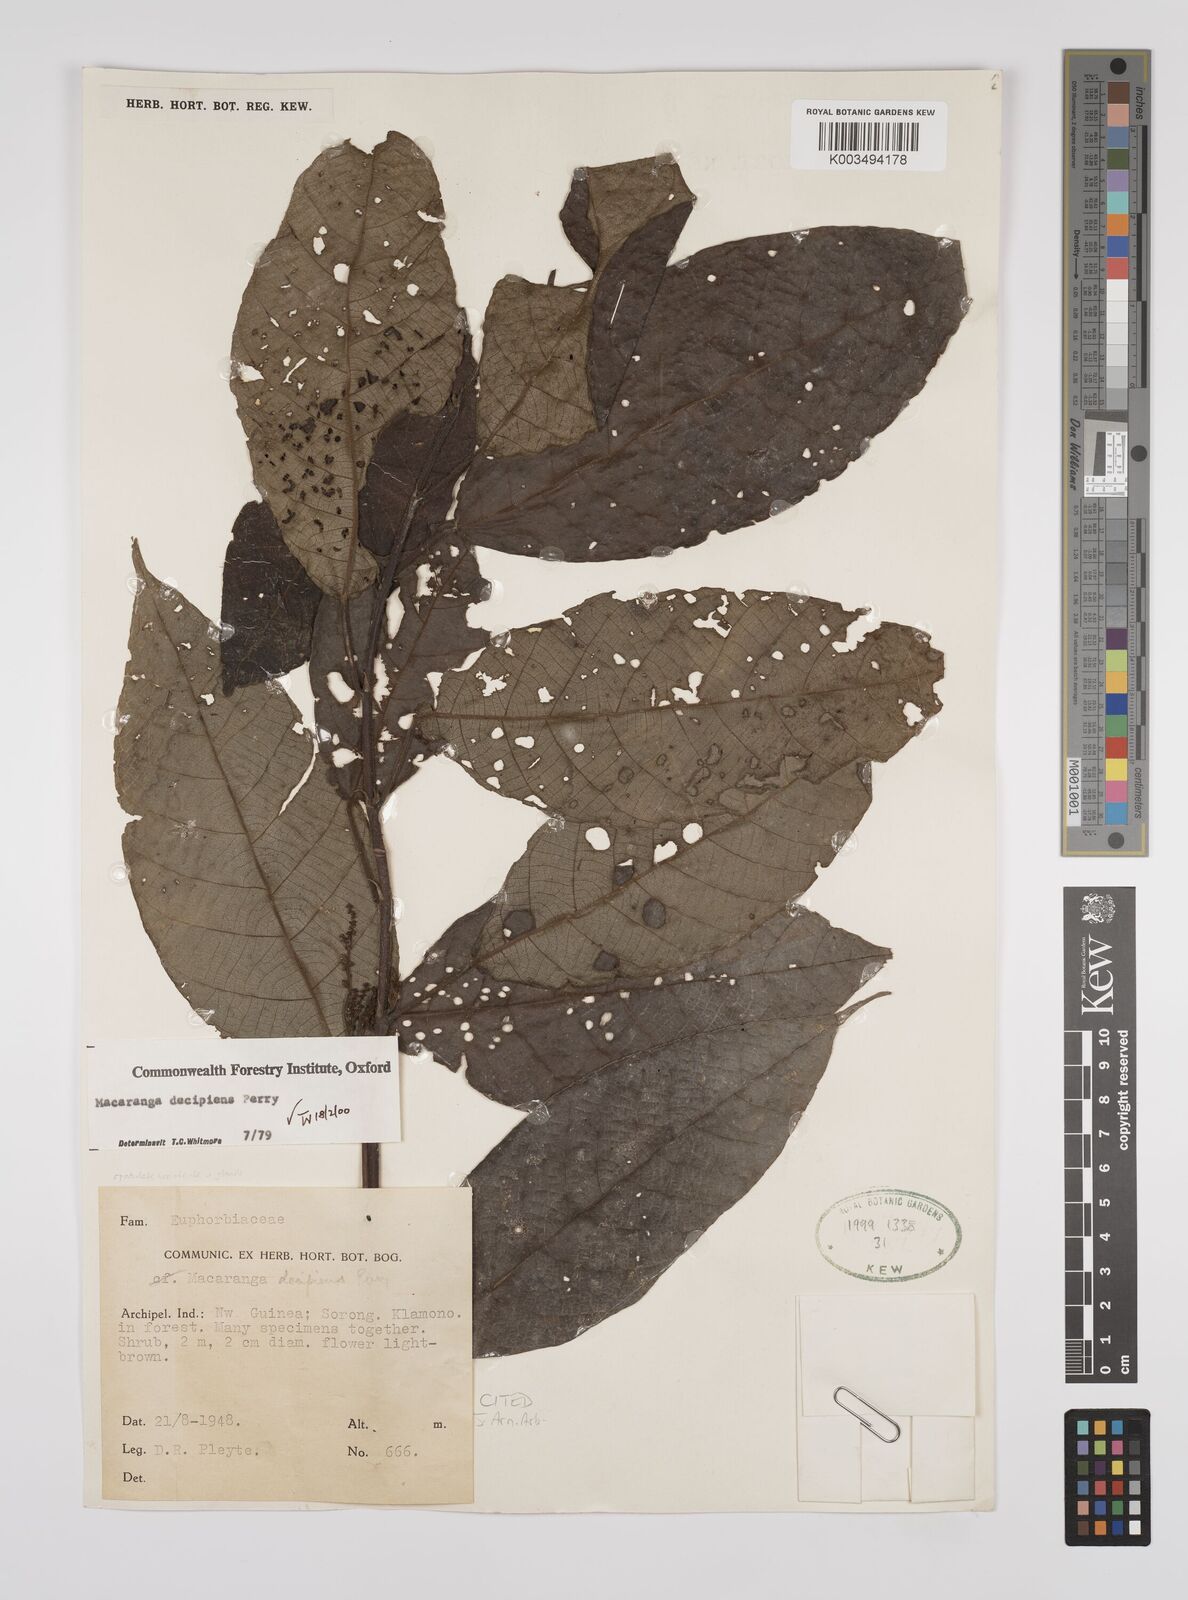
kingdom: Plantae
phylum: Tracheophyta
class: Magnoliopsida
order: Malpighiales
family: Euphorbiaceae
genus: Macaranga
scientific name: Macaranga decipiens
